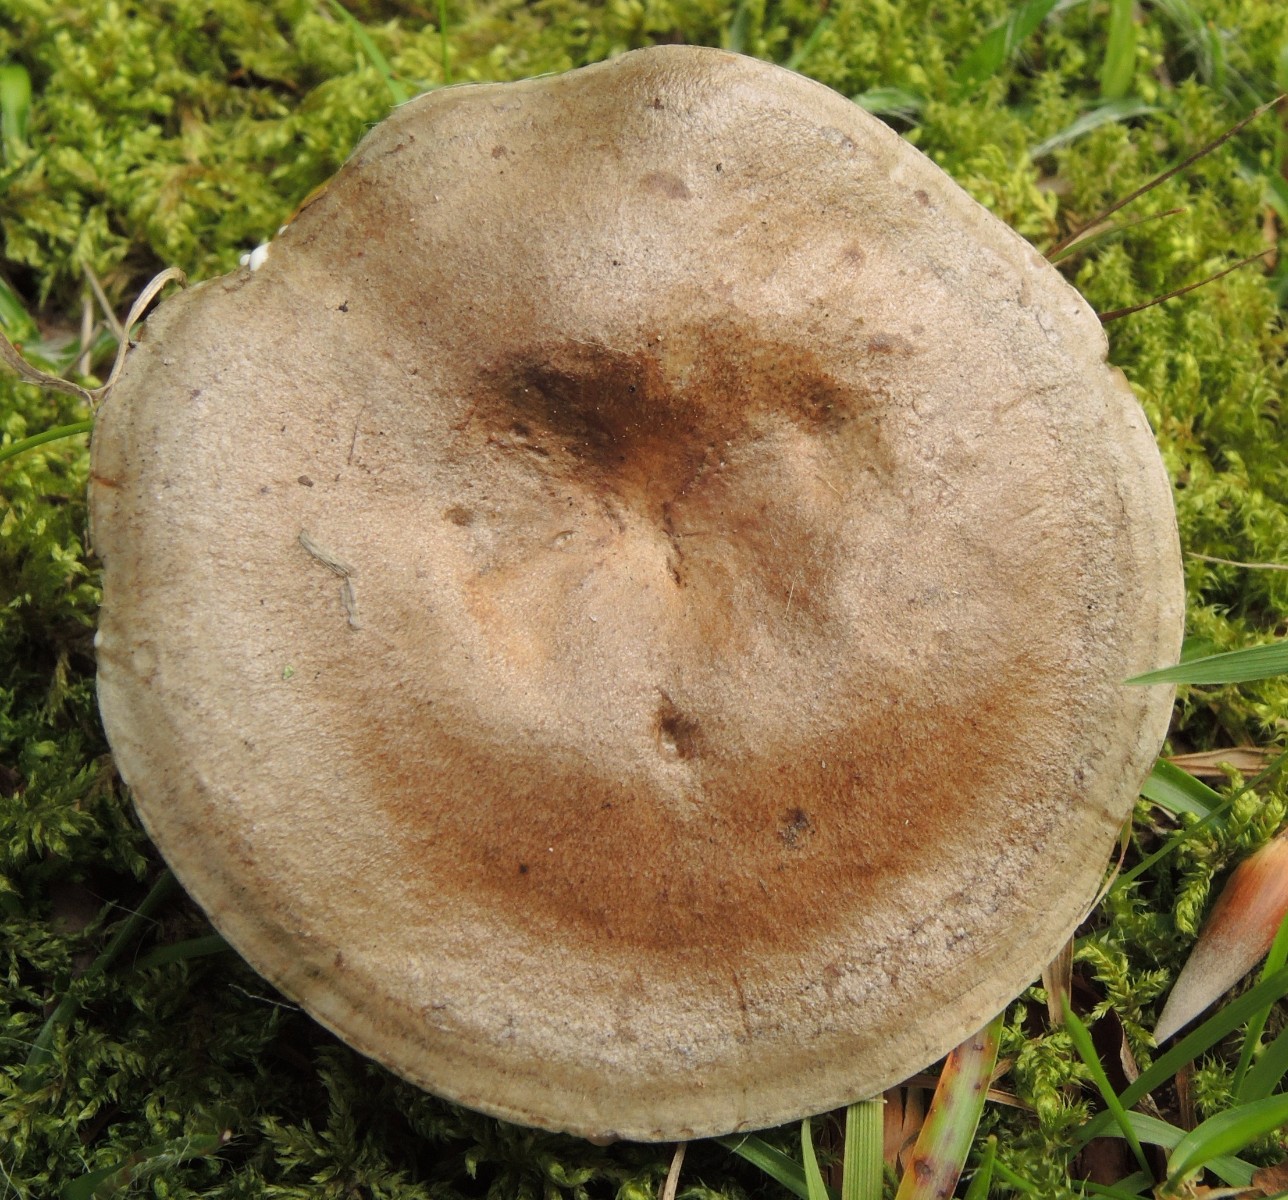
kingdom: Fungi
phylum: Basidiomycota
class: Agaricomycetes
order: Russulales
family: Russulaceae
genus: Lactarius
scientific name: Lactarius fluens
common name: lysrandet mælkehat
